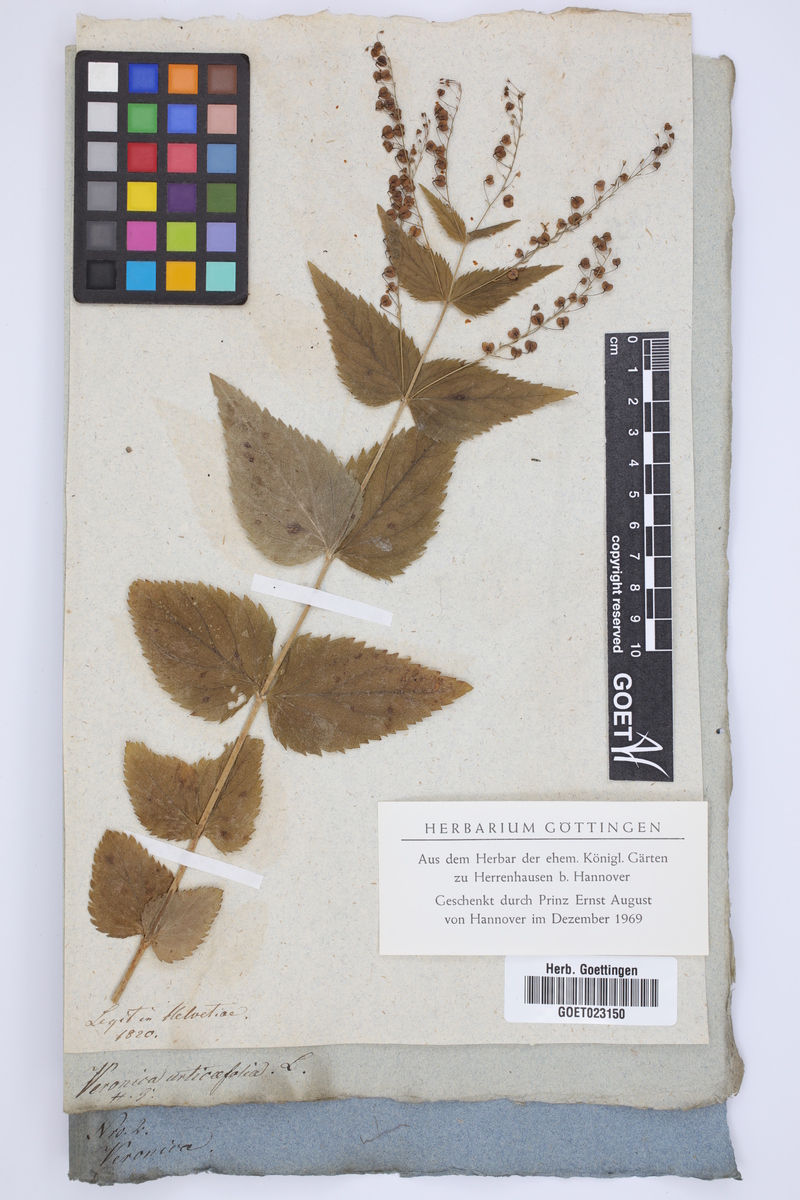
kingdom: Plantae
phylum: Tracheophyta
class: Magnoliopsida
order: Lamiales
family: Plantaginaceae
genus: Veronica
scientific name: Veronica urticifolia
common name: Nettle-leaf speedwell
